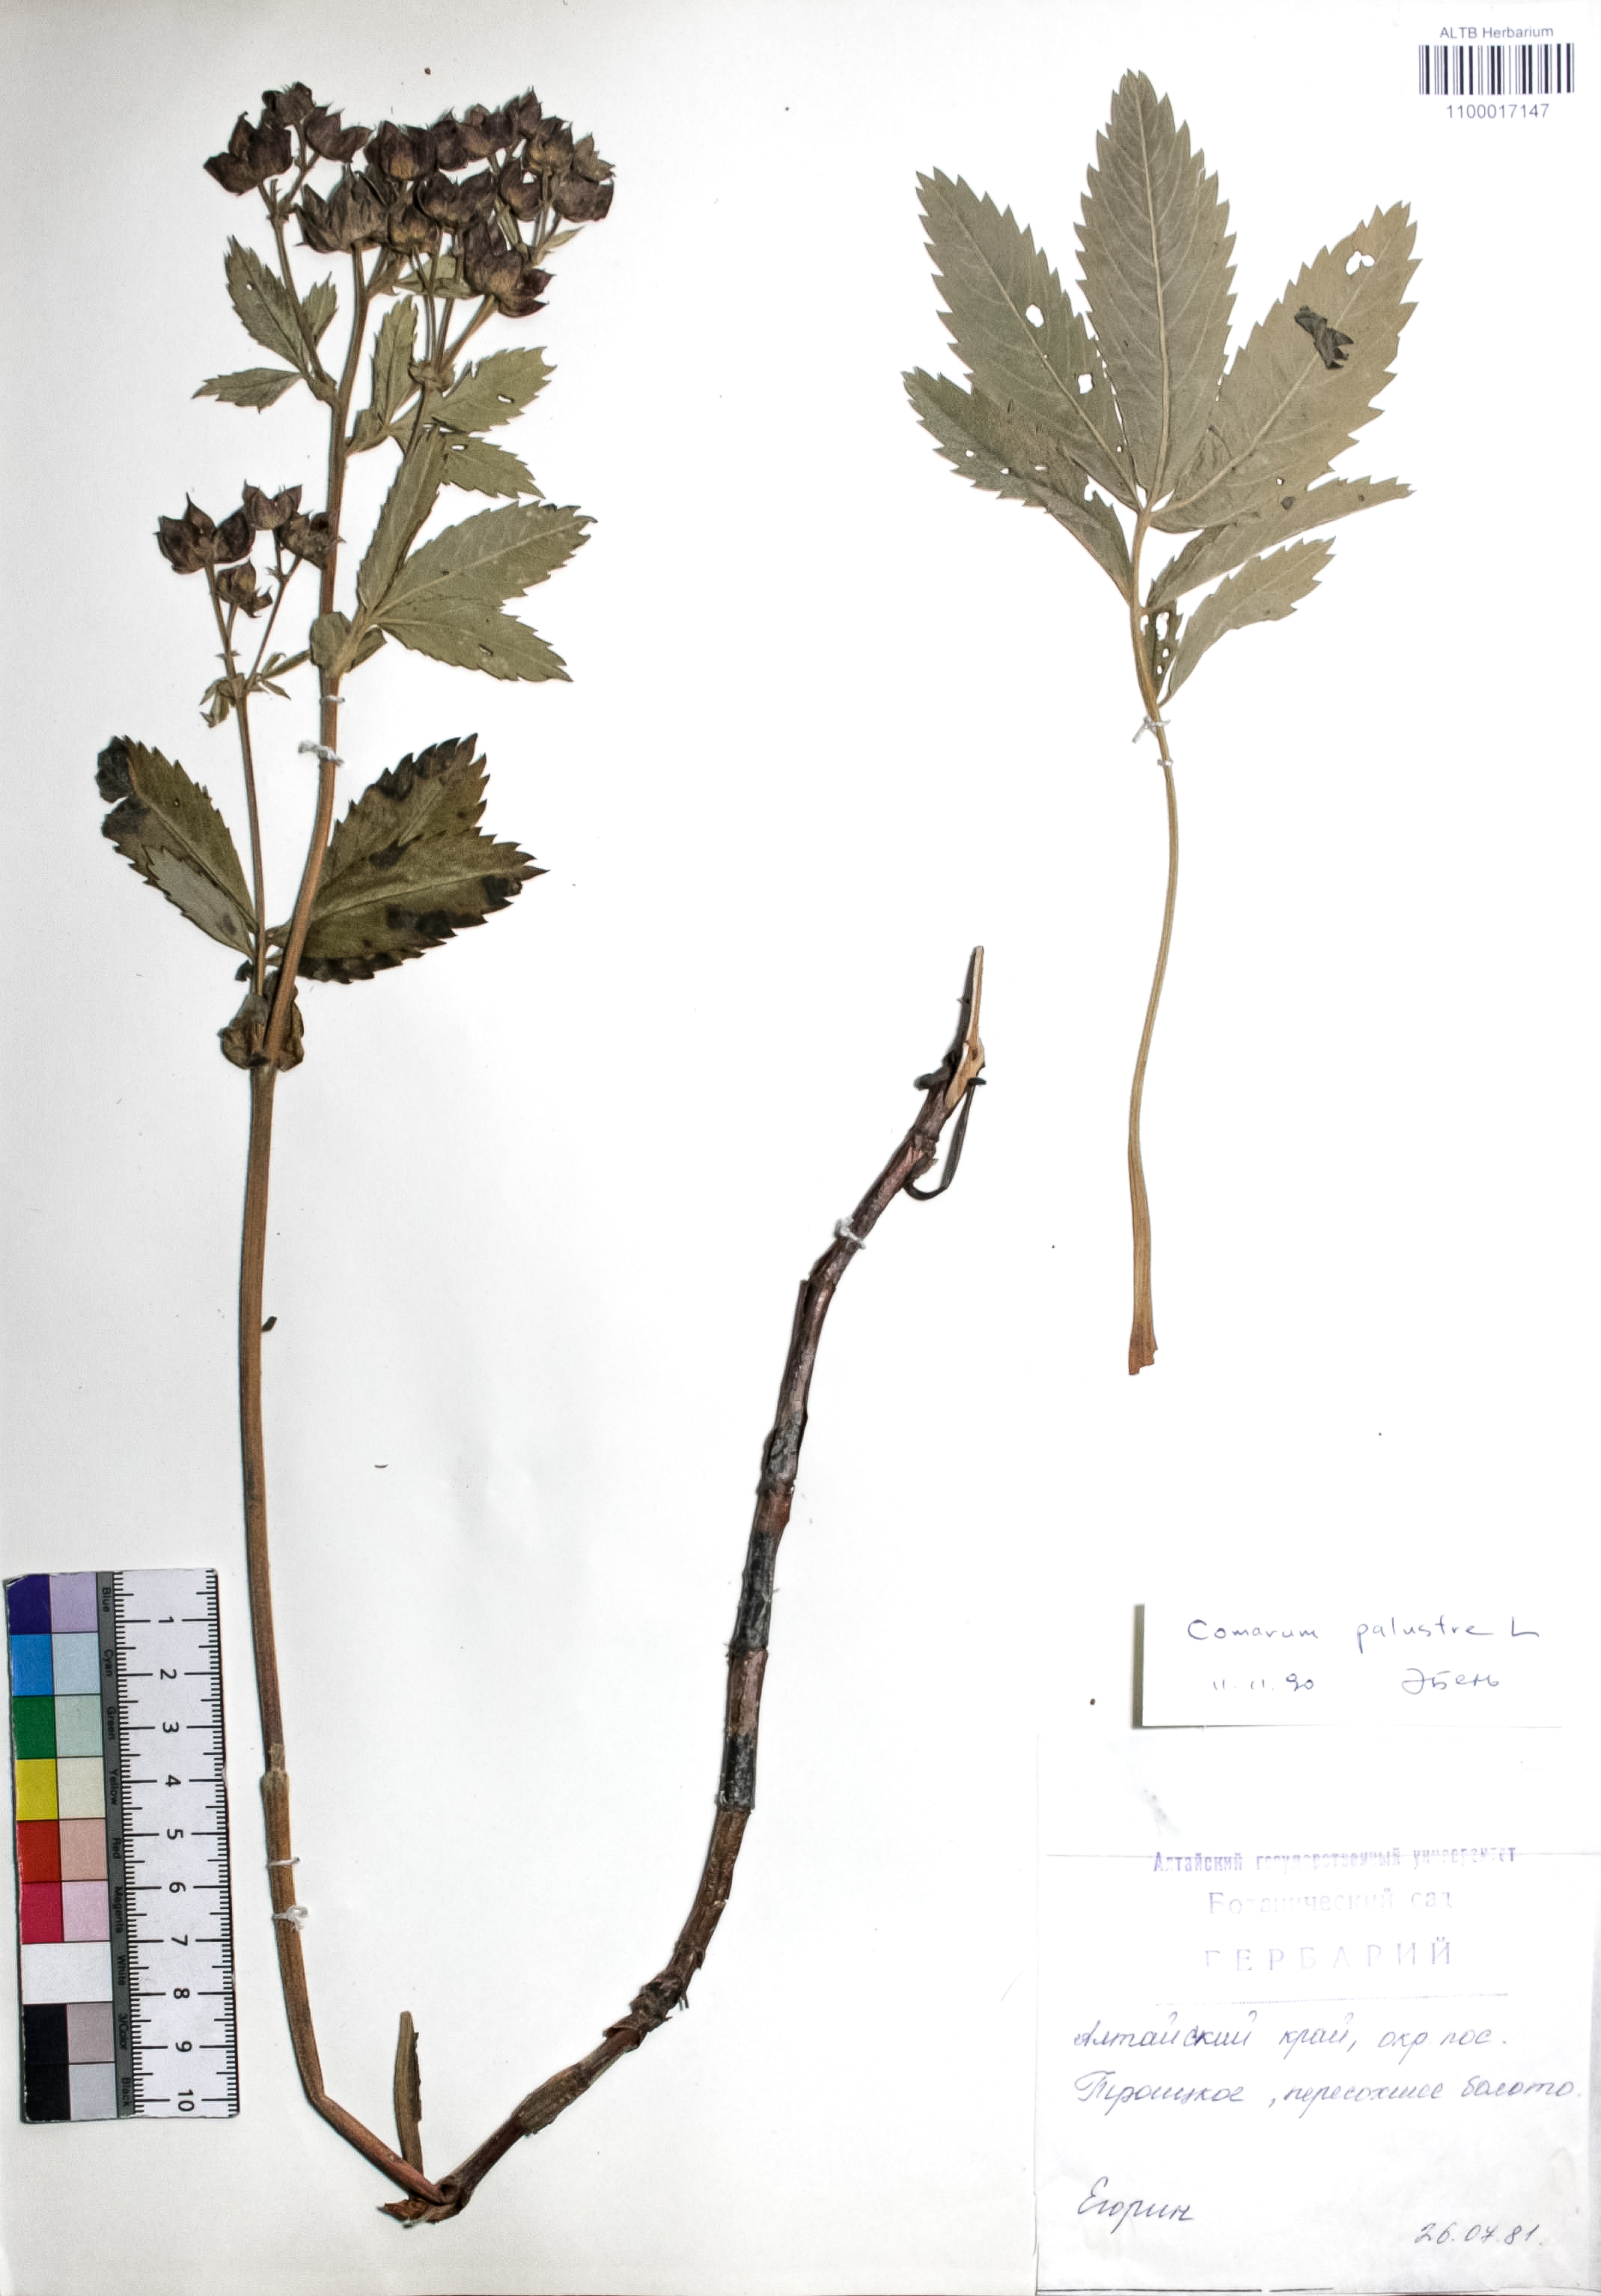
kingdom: Plantae
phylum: Tracheophyta
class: Magnoliopsida
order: Rosales
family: Rosaceae
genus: Comarum
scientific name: Comarum palustre
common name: Marsh cinquefoil
